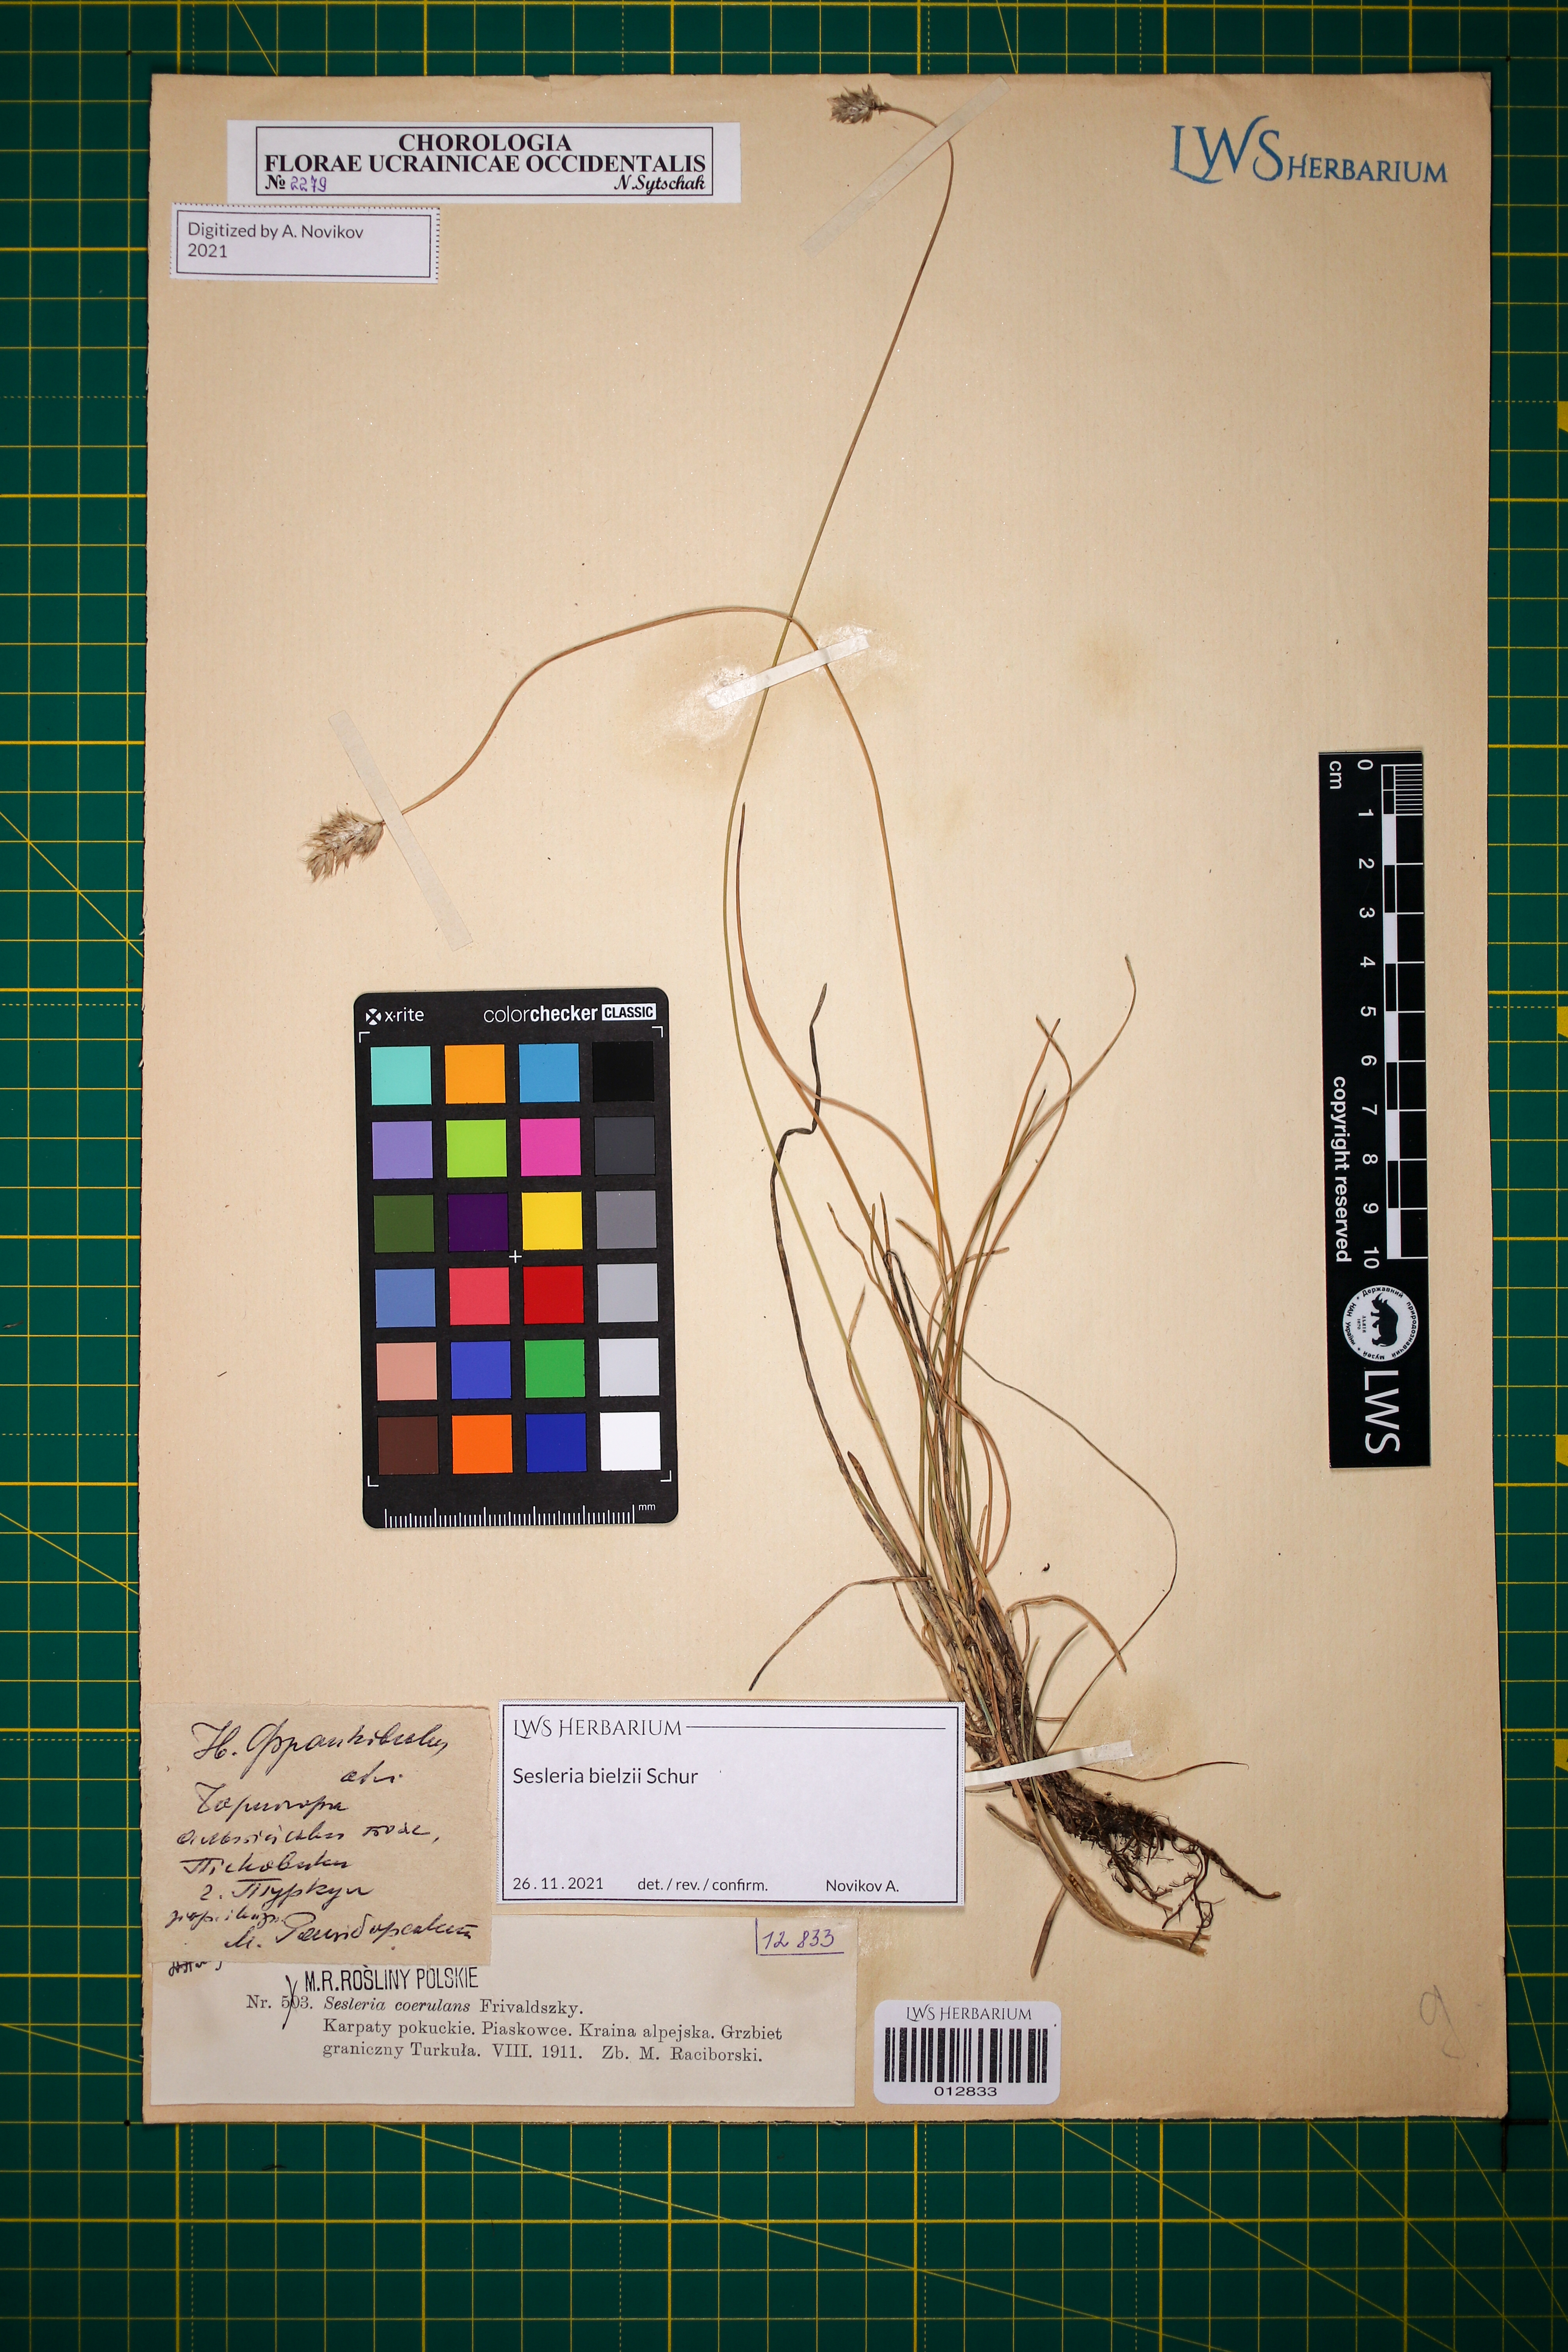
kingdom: Plantae
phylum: Tracheophyta
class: Liliopsida
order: Poales
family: Poaceae
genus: Sesleria
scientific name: Sesleria bielzii
